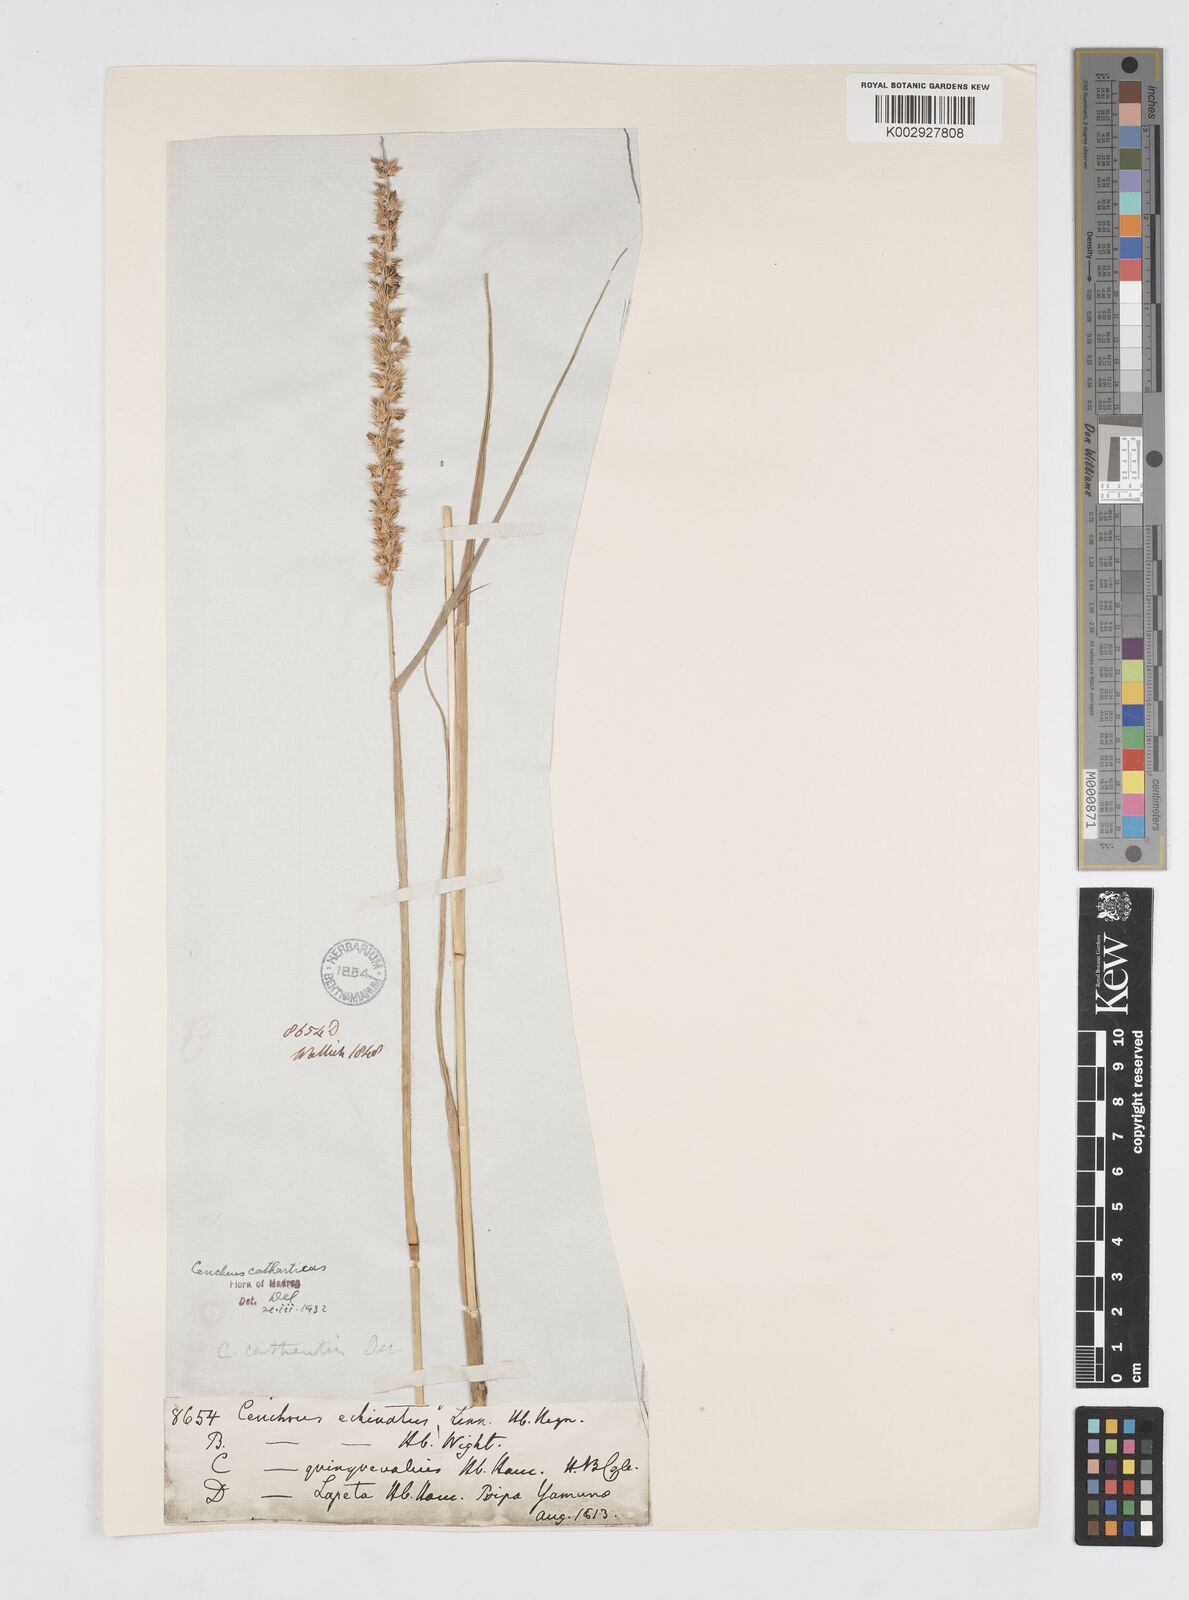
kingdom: Plantae
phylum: Tracheophyta
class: Liliopsida
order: Poales
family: Poaceae
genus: Cenchrus
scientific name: Cenchrus biflorus
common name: Indian sandbur
